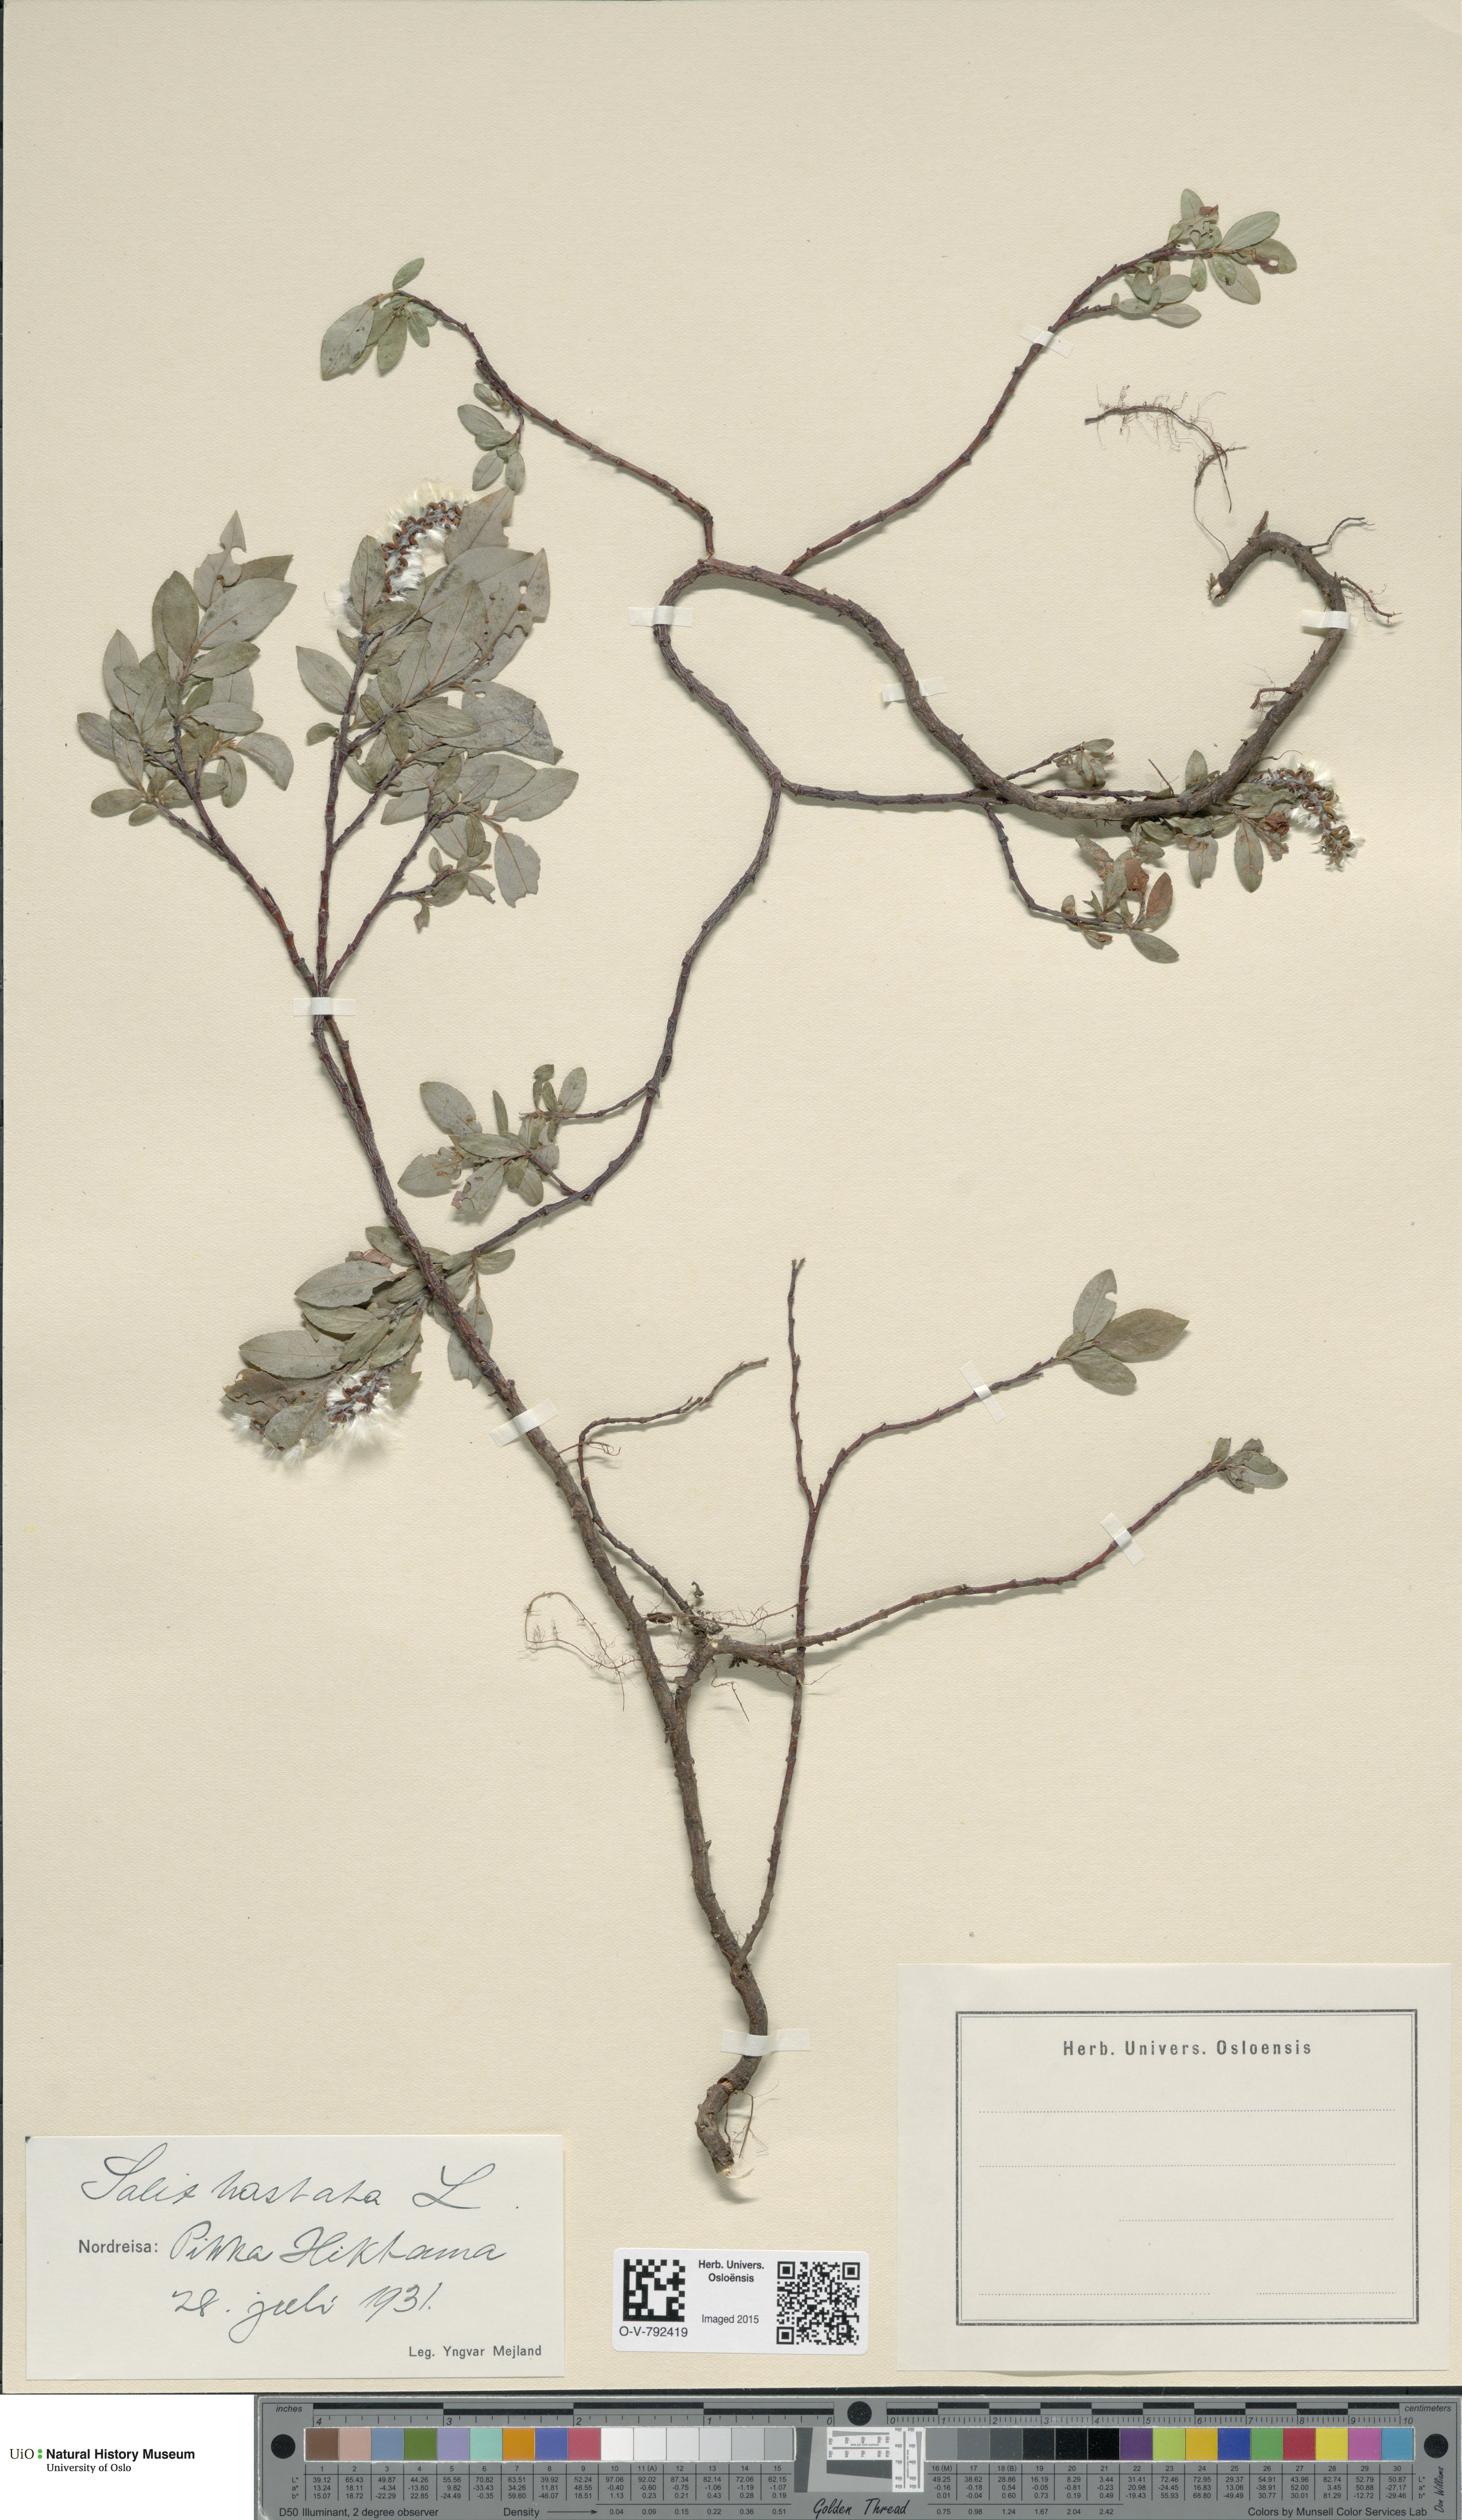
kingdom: Plantae
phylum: Tracheophyta
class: Magnoliopsida
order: Malpighiales
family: Salicaceae
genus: Salix
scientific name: Salix hastata
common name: Halberd willow
